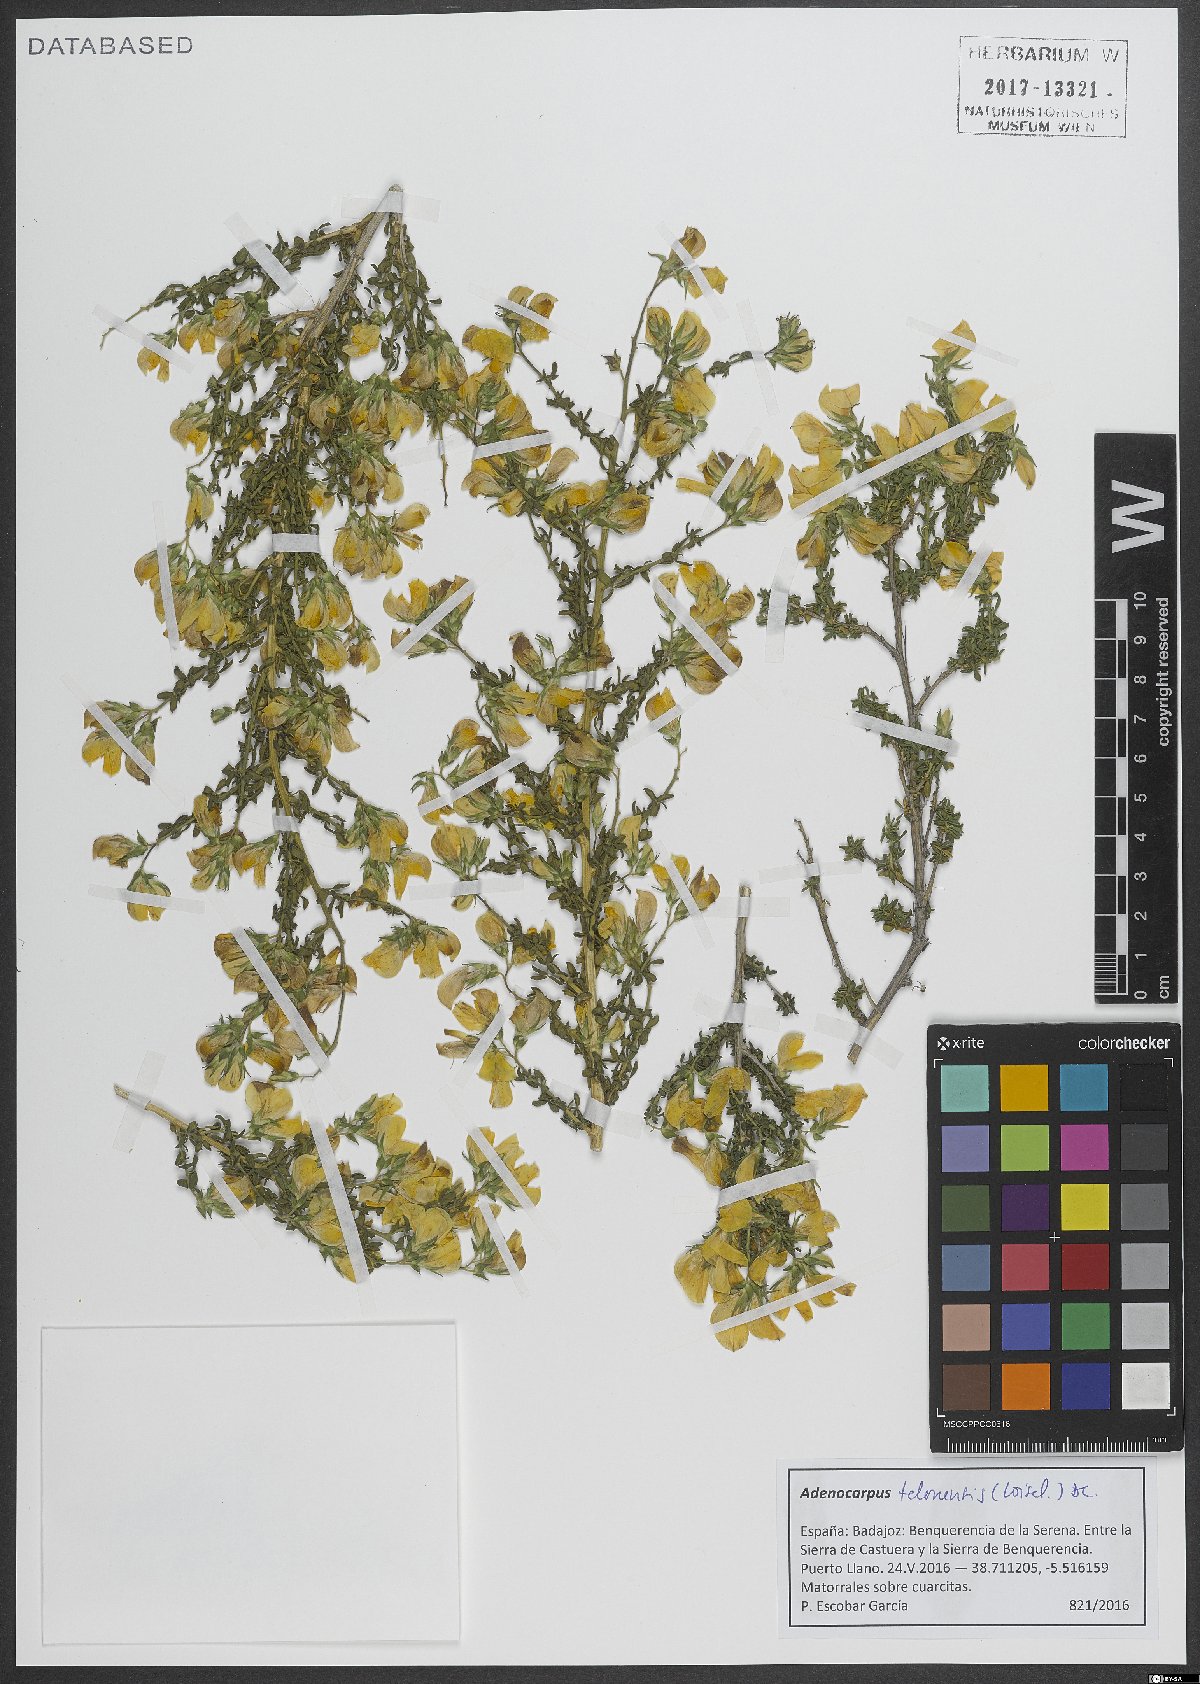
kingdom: Plantae
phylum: Tracheophyta
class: Magnoliopsida
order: Fabales
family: Fabaceae
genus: Adenocarpus
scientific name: Adenocarpus telonensis
